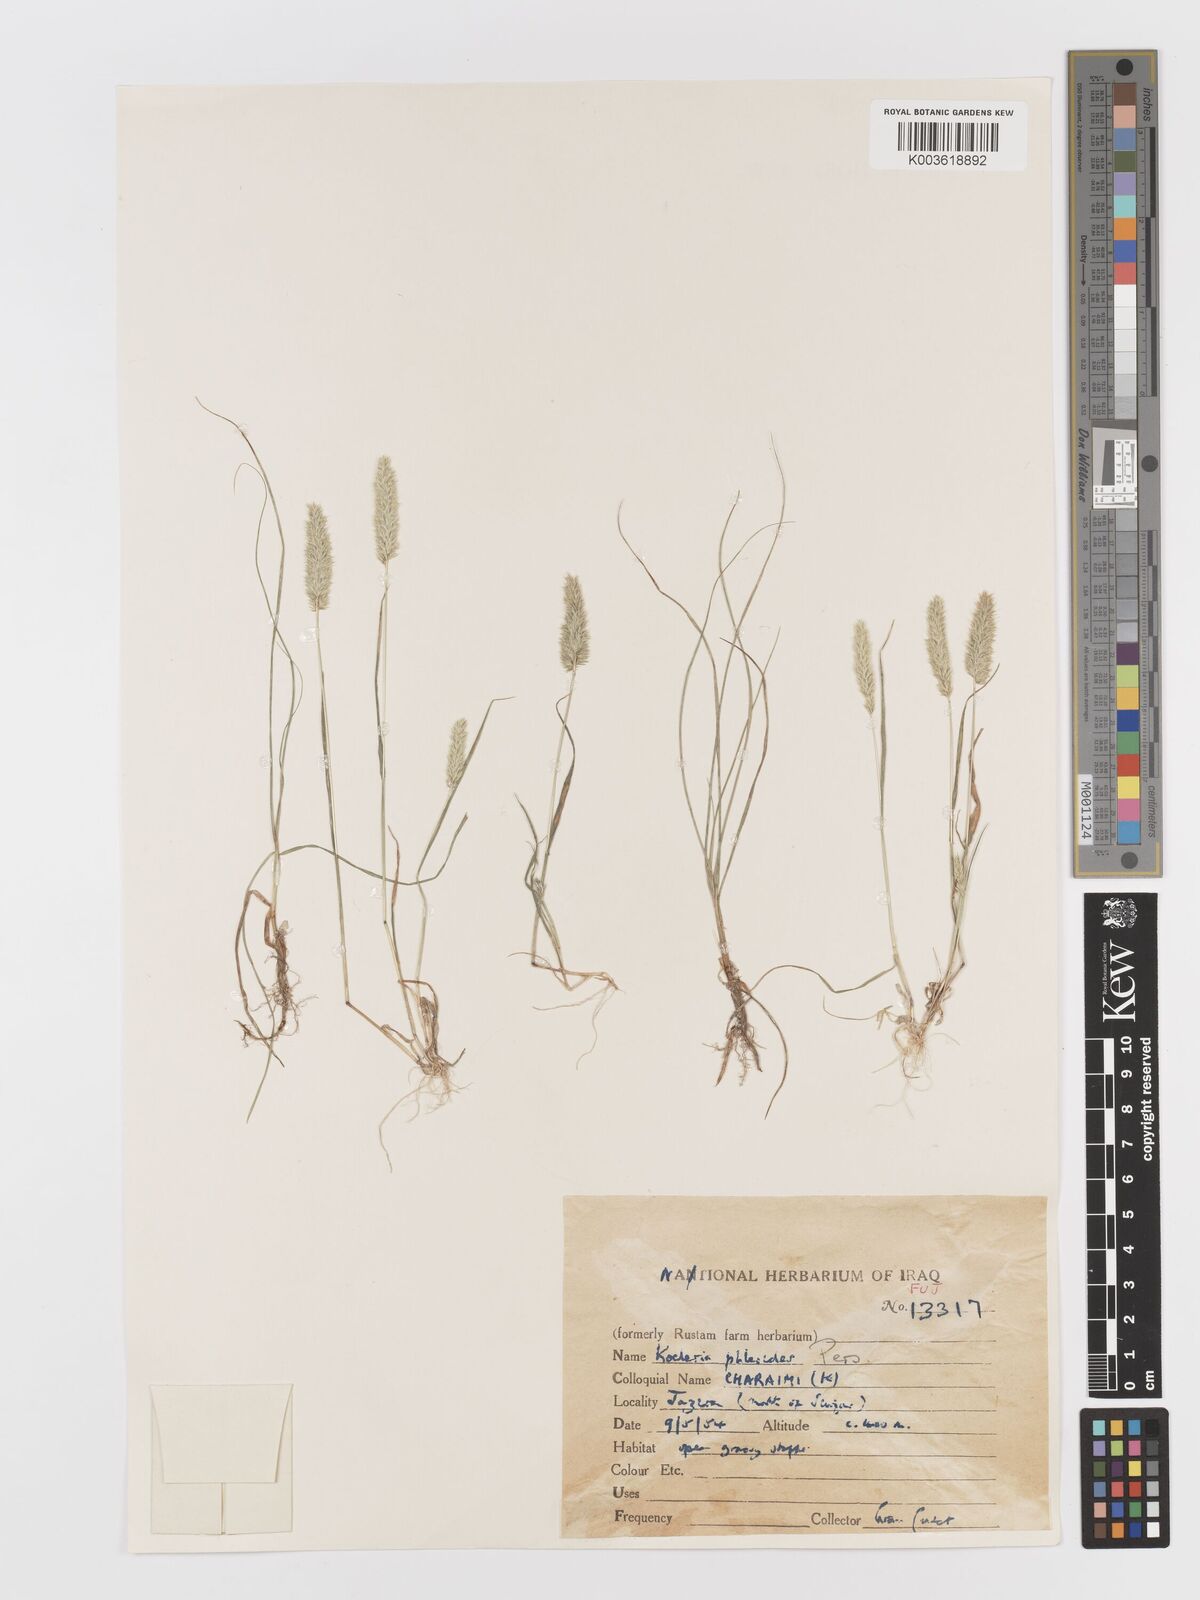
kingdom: Plantae
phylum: Tracheophyta
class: Liliopsida
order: Poales
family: Poaceae
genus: Rostraria
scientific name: Rostraria cristata
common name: Mediterranean hair-grass
